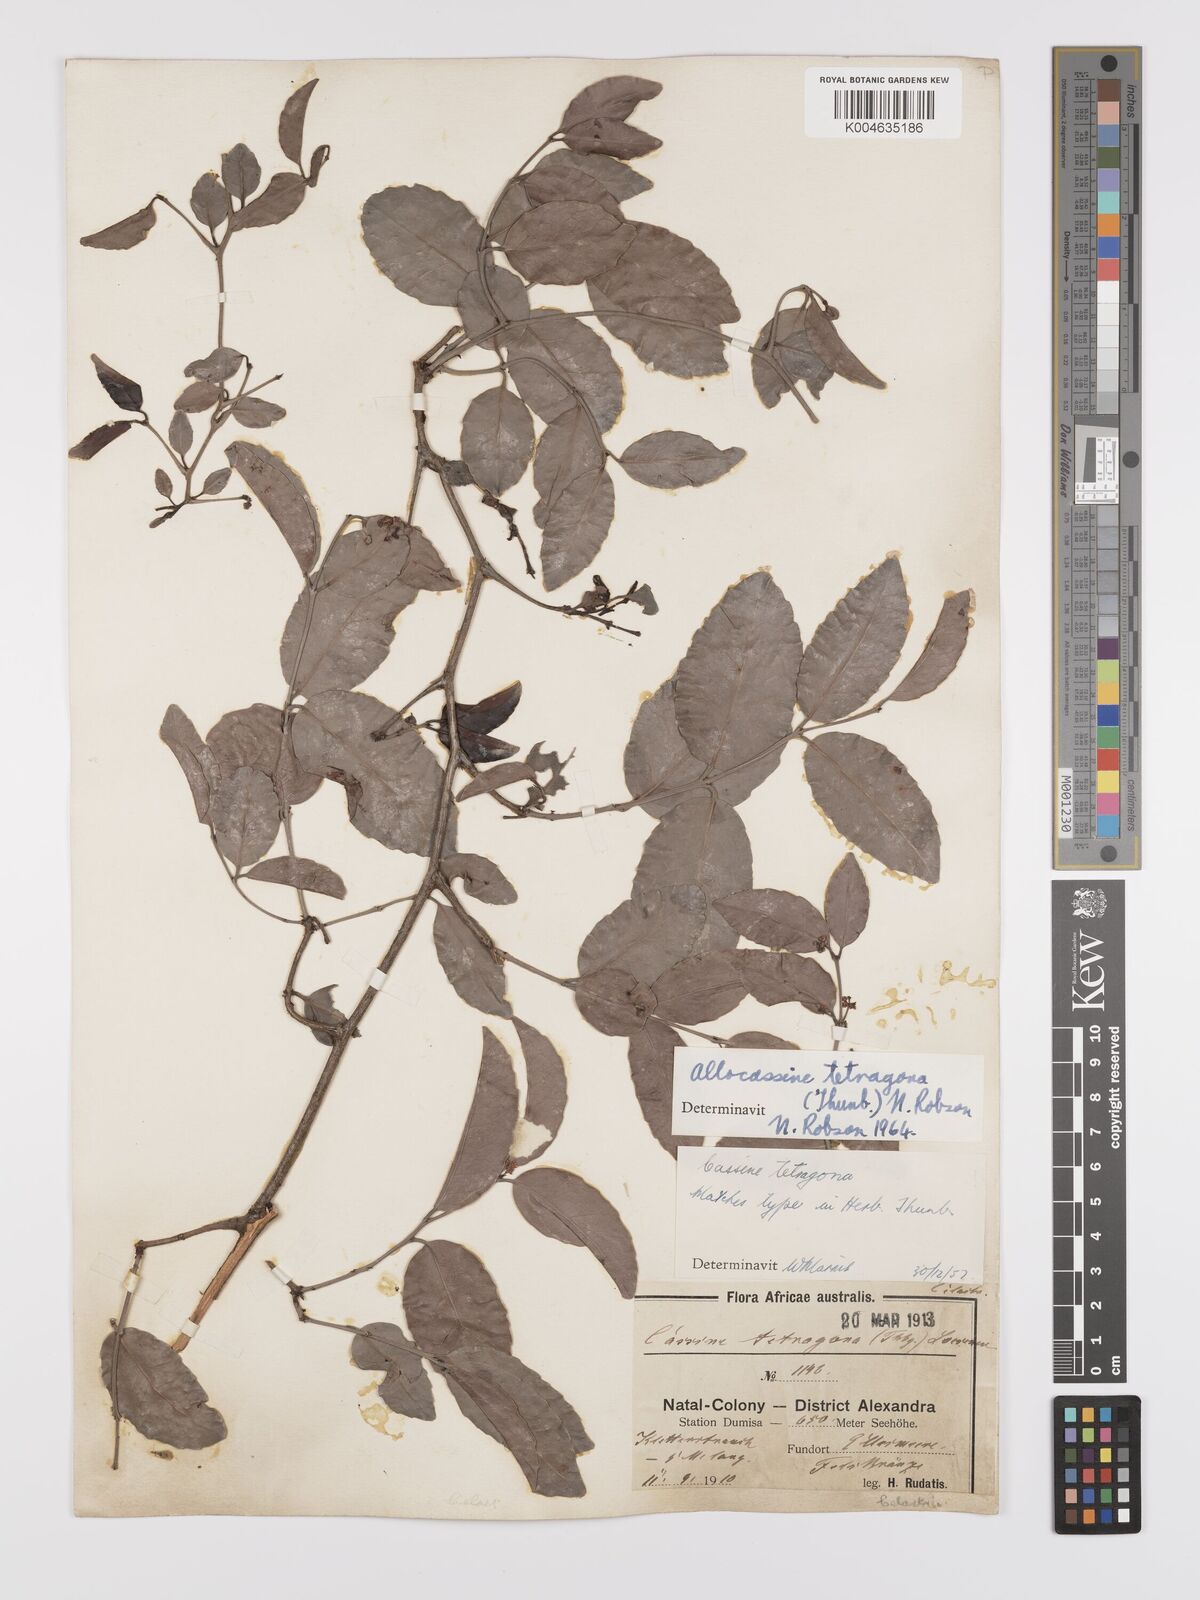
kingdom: Plantae
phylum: Tracheophyta
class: Magnoliopsida
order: Celastrales
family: Celastraceae
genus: Lauridia
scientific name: Lauridia tetragona
